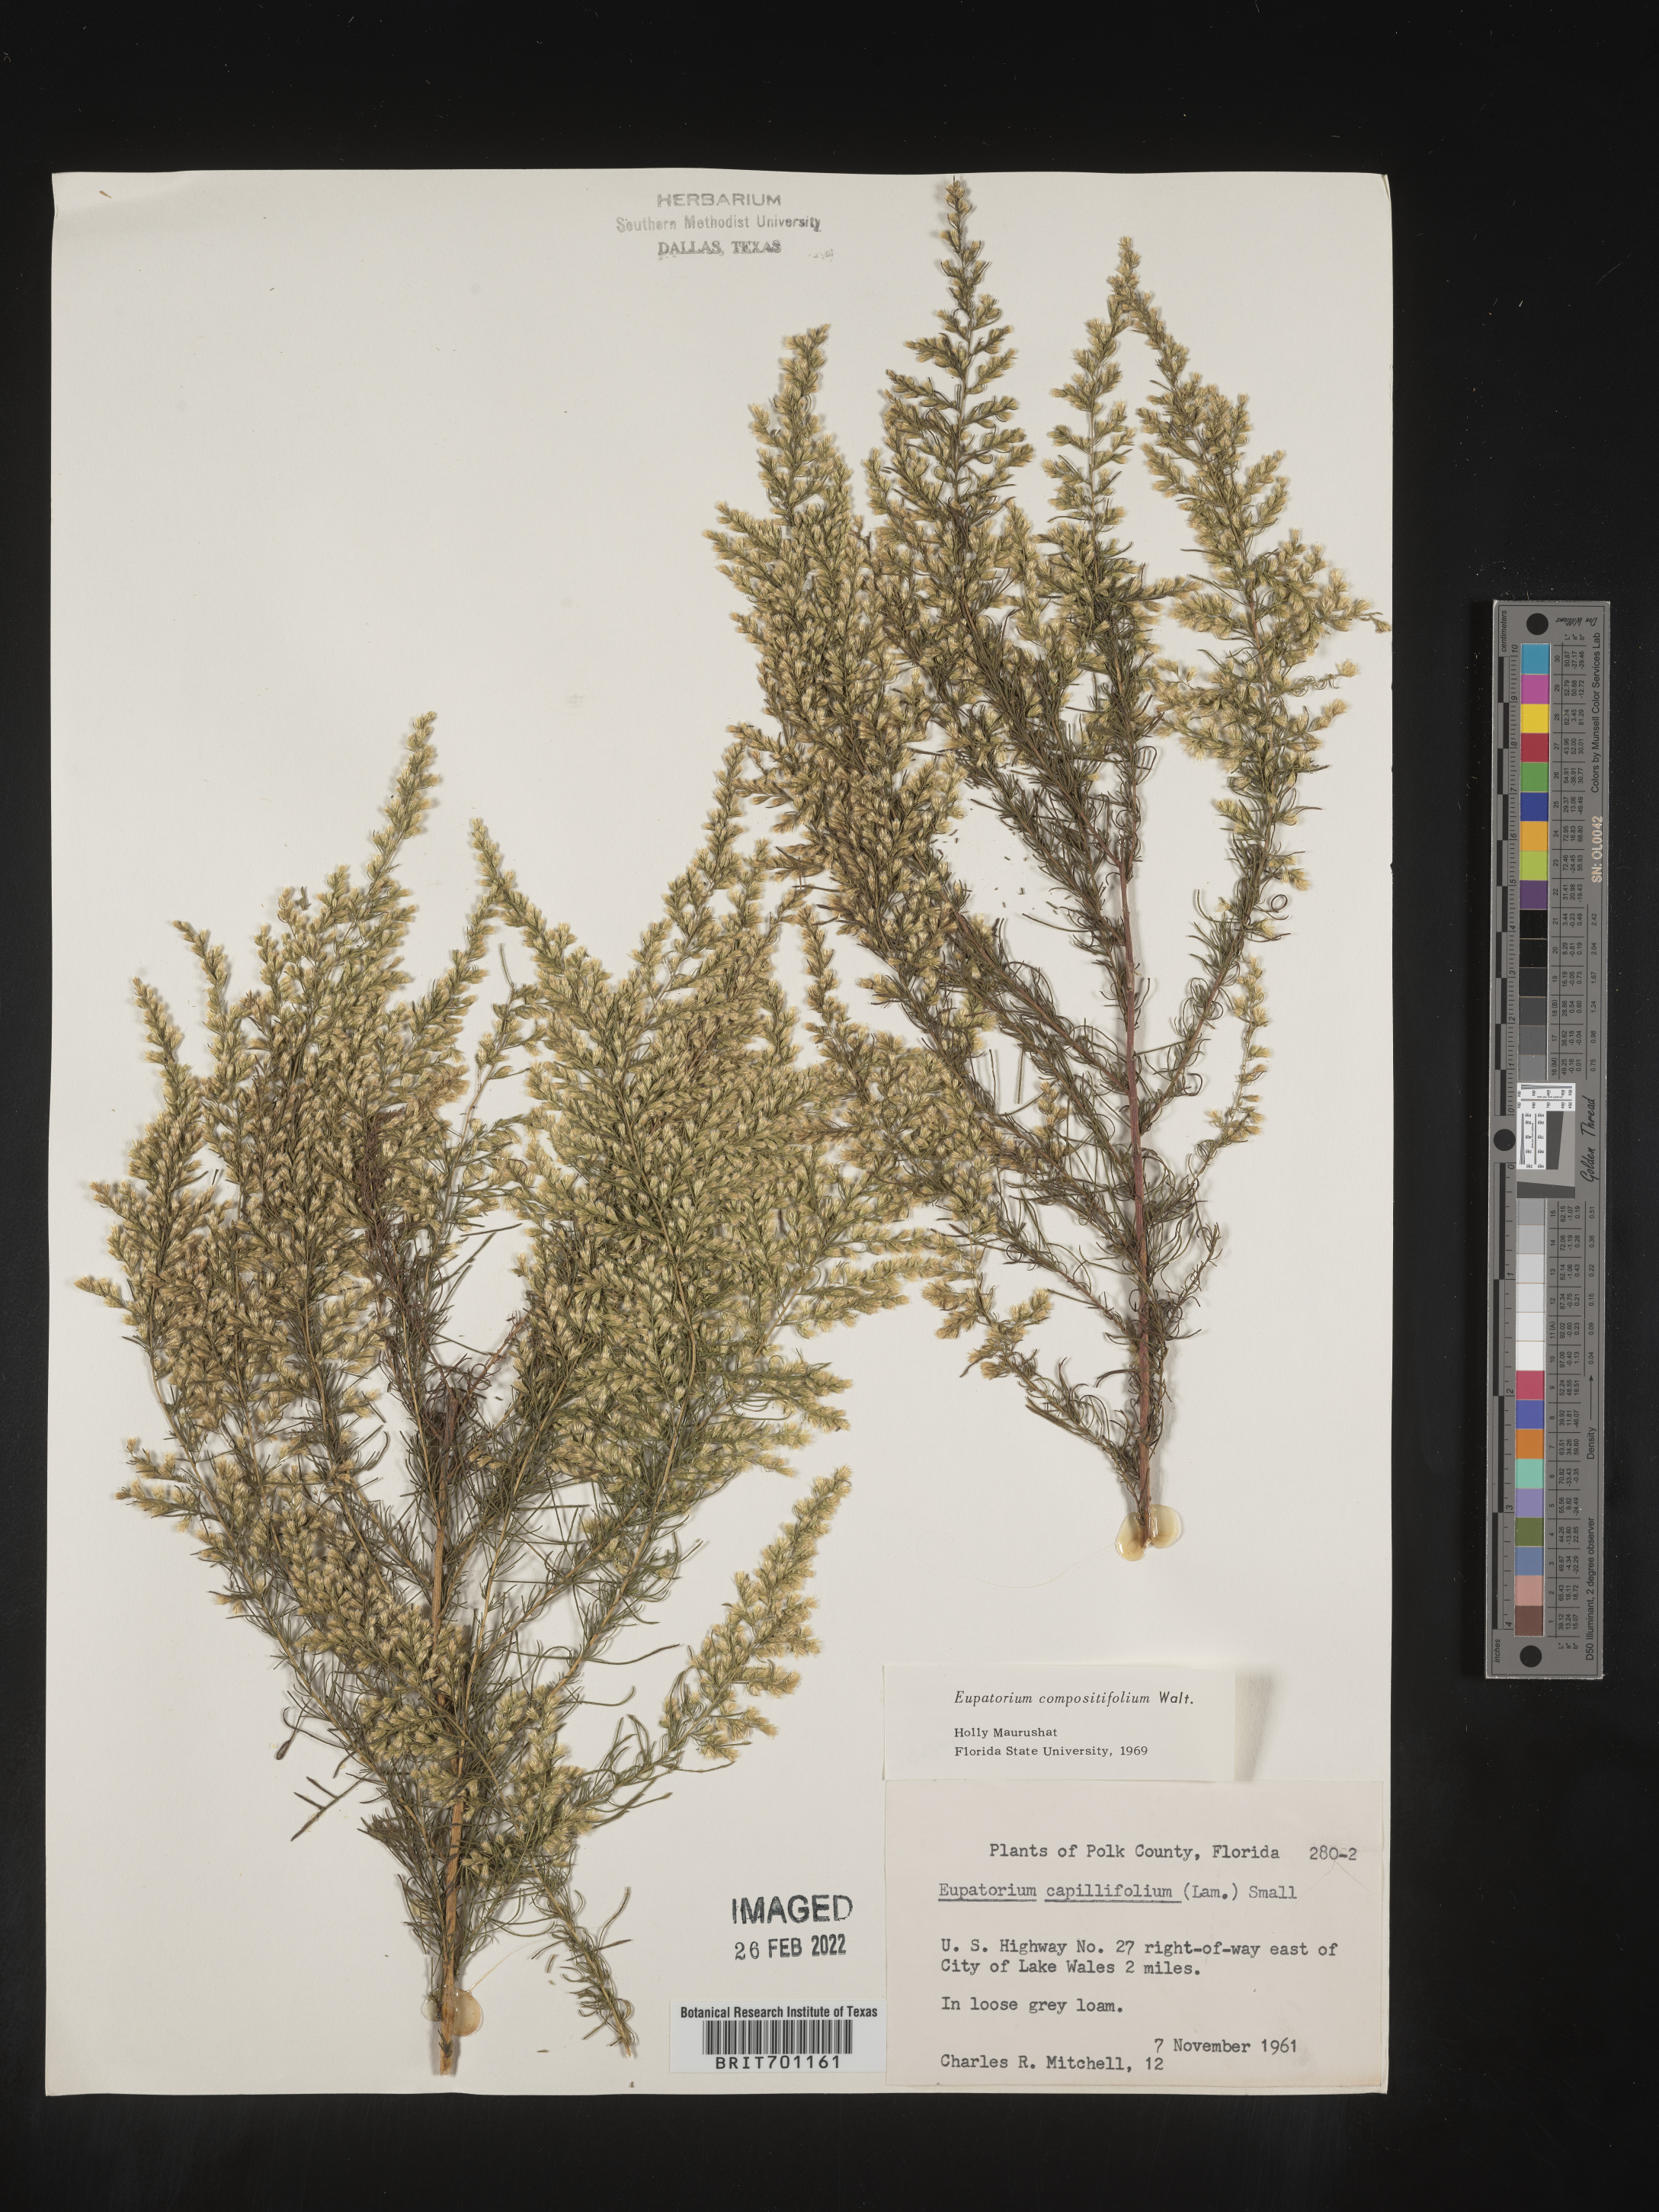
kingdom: Plantae
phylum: Tracheophyta
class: Magnoliopsida
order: Asterales
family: Asteraceae
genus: Eupatorium
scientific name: Eupatorium compositifolium
